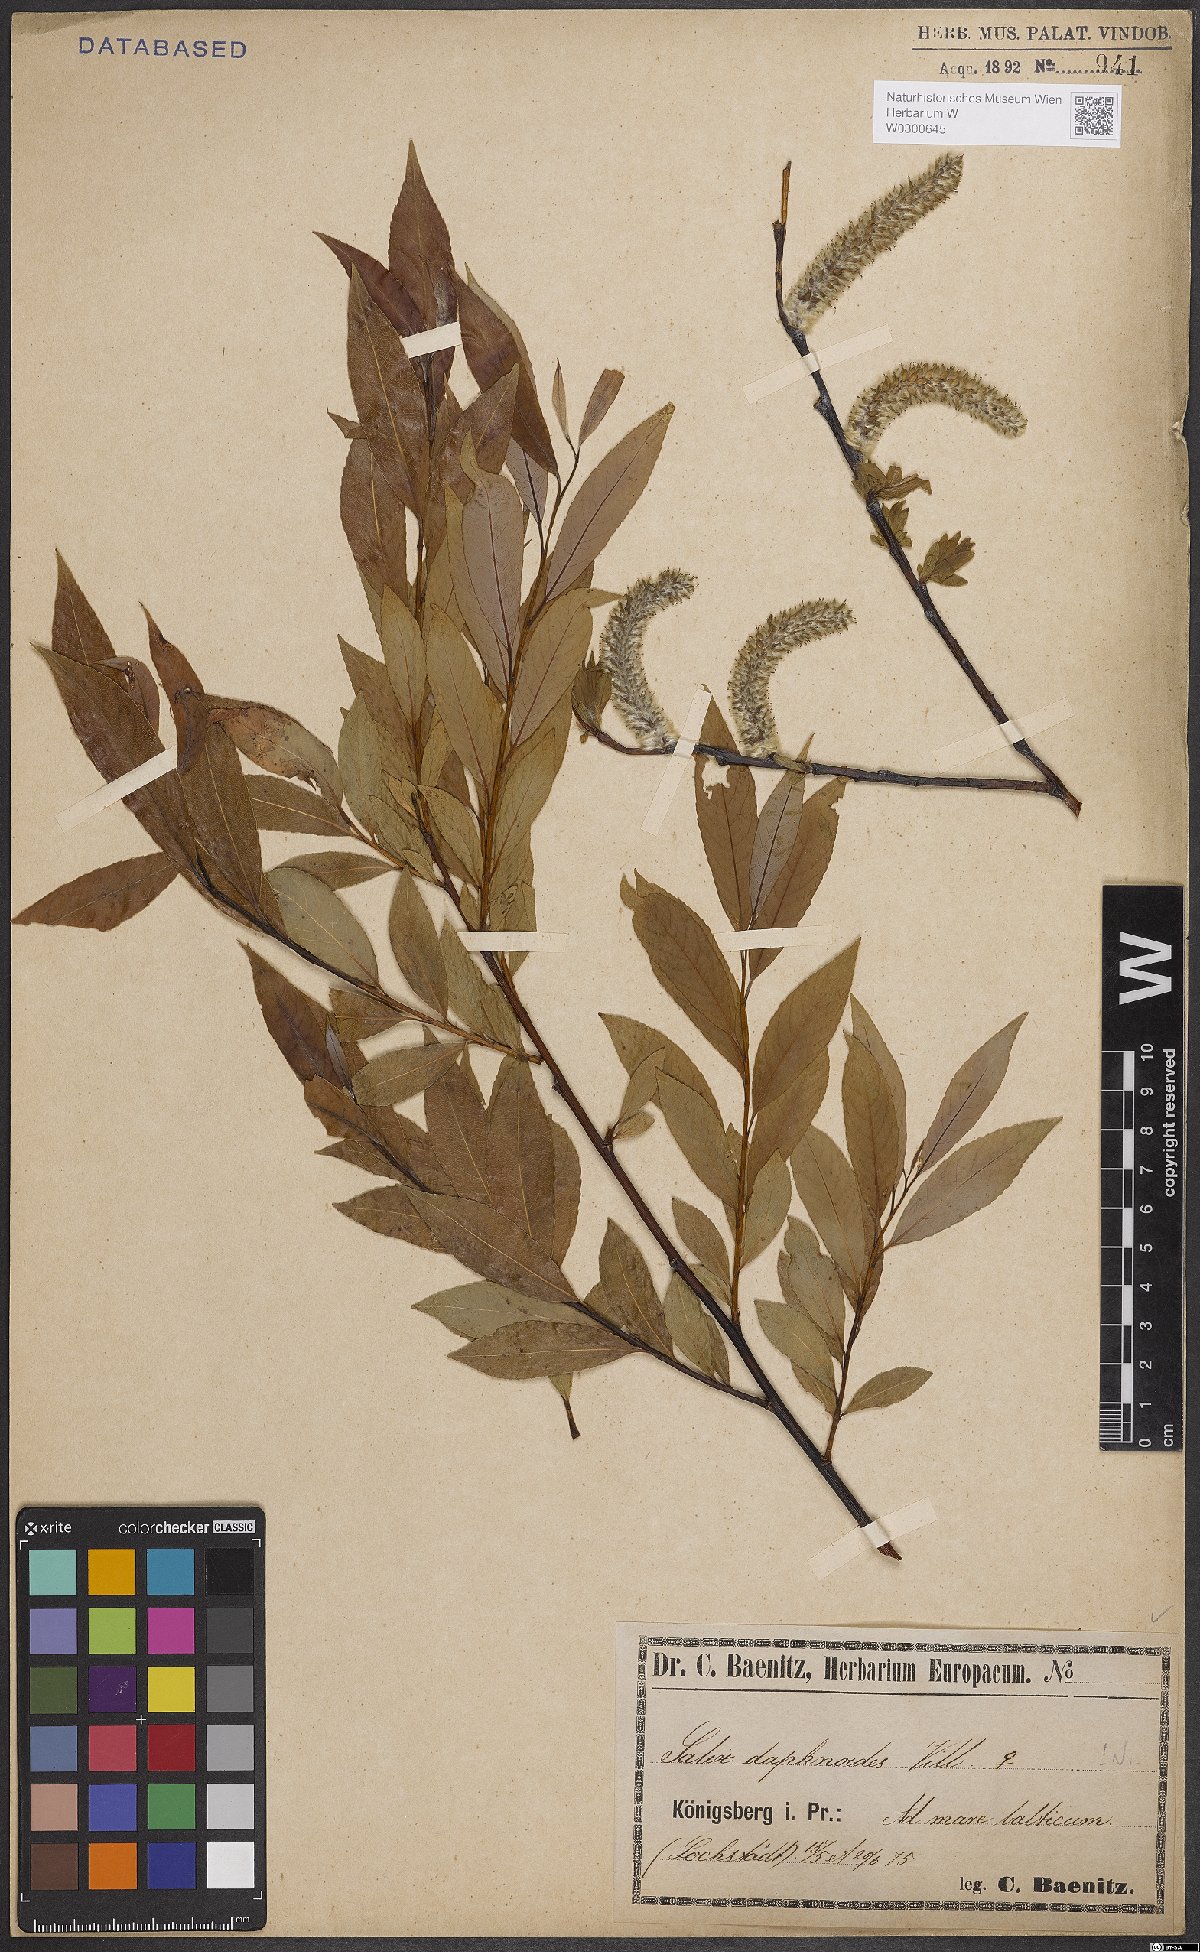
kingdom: Plantae
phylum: Tracheophyta
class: Magnoliopsida
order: Malpighiales
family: Salicaceae
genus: Salix
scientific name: Salix daphnoides
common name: European violet-willow
